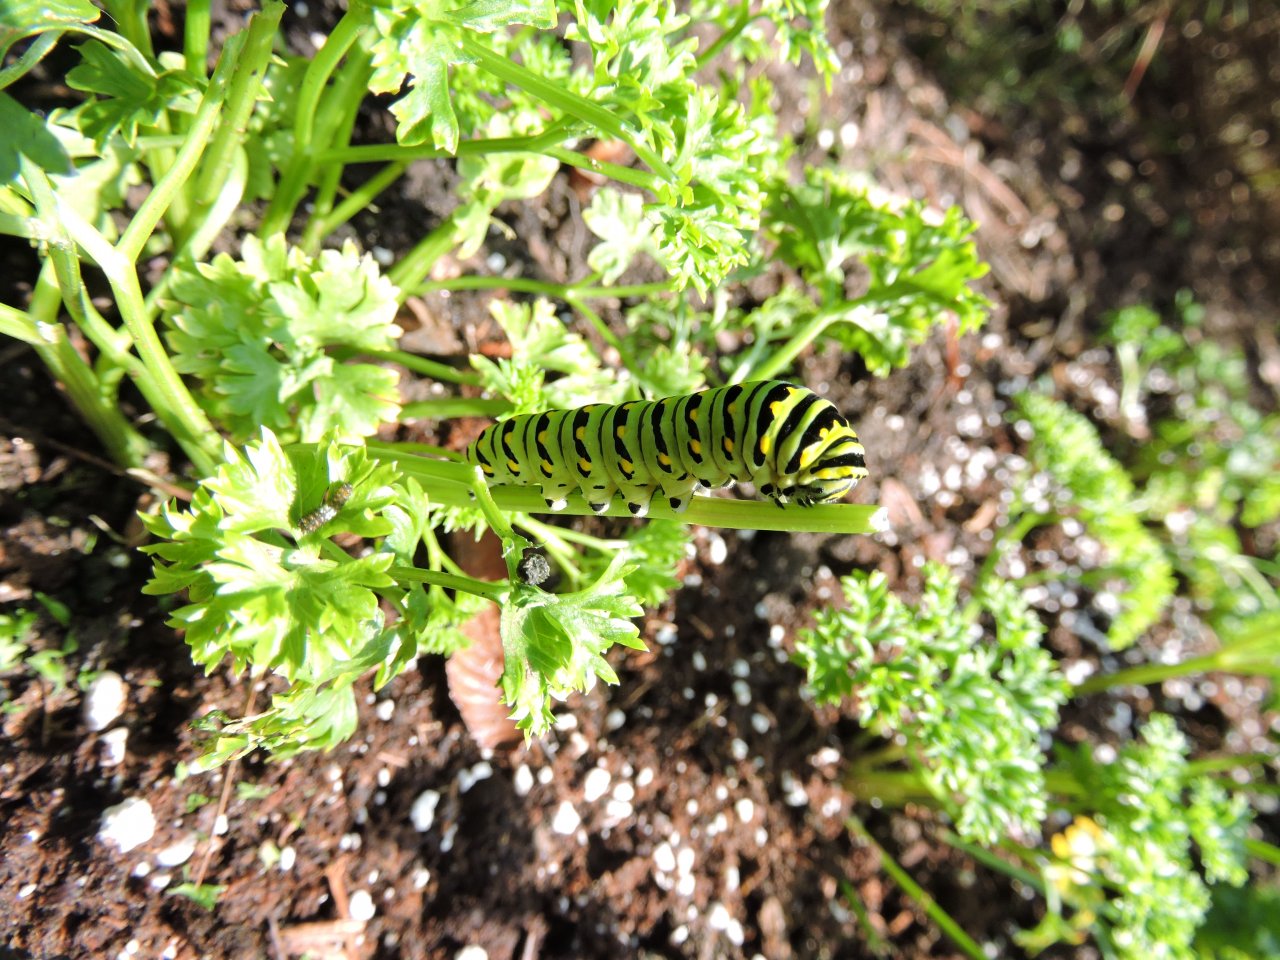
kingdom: Animalia
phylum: Arthropoda
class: Insecta
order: Lepidoptera
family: Papilionidae
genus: Papilio
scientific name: Papilio polyxenes
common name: Black Swallowtail
